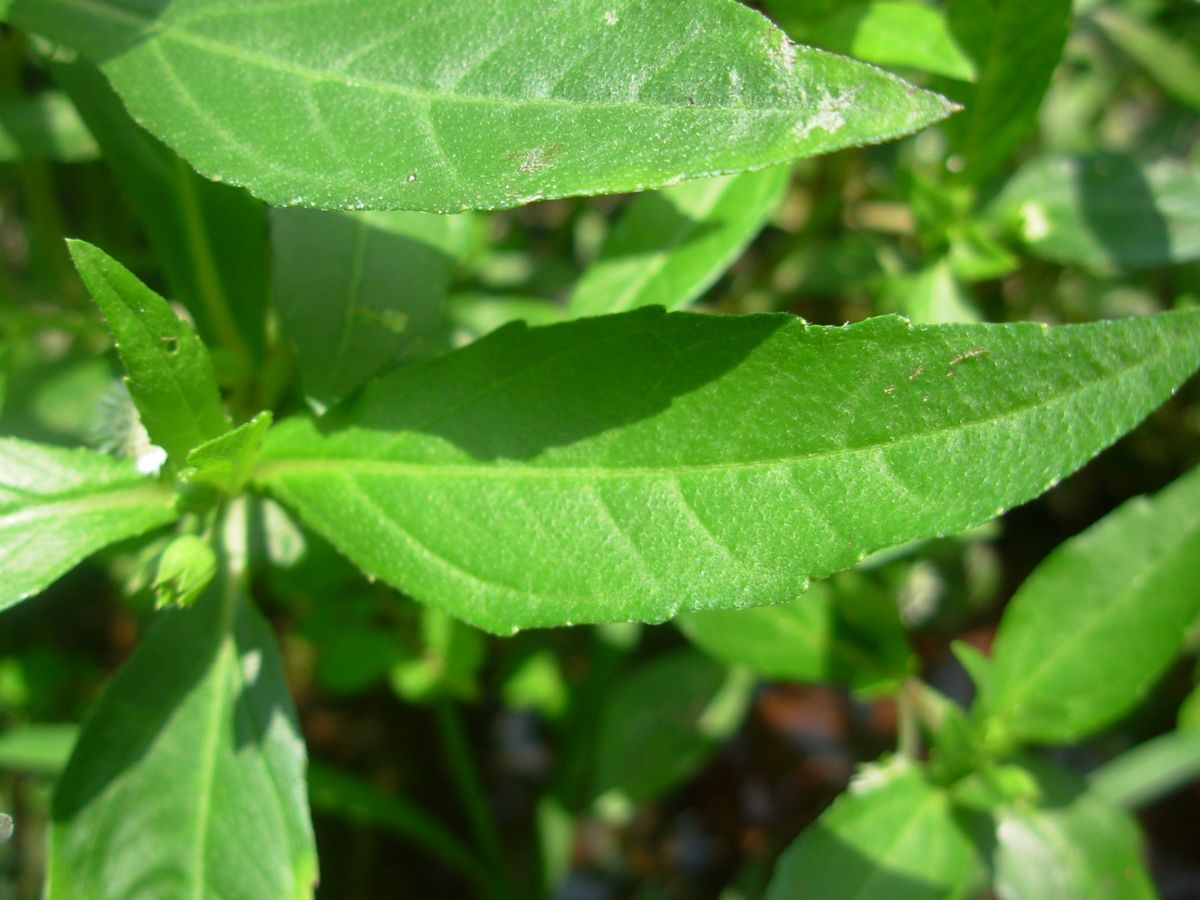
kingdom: Plantae
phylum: Tracheophyta
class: Magnoliopsida
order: Asterales
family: Asteraceae
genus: Eclipta
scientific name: Eclipta prostrata
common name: False daisy
